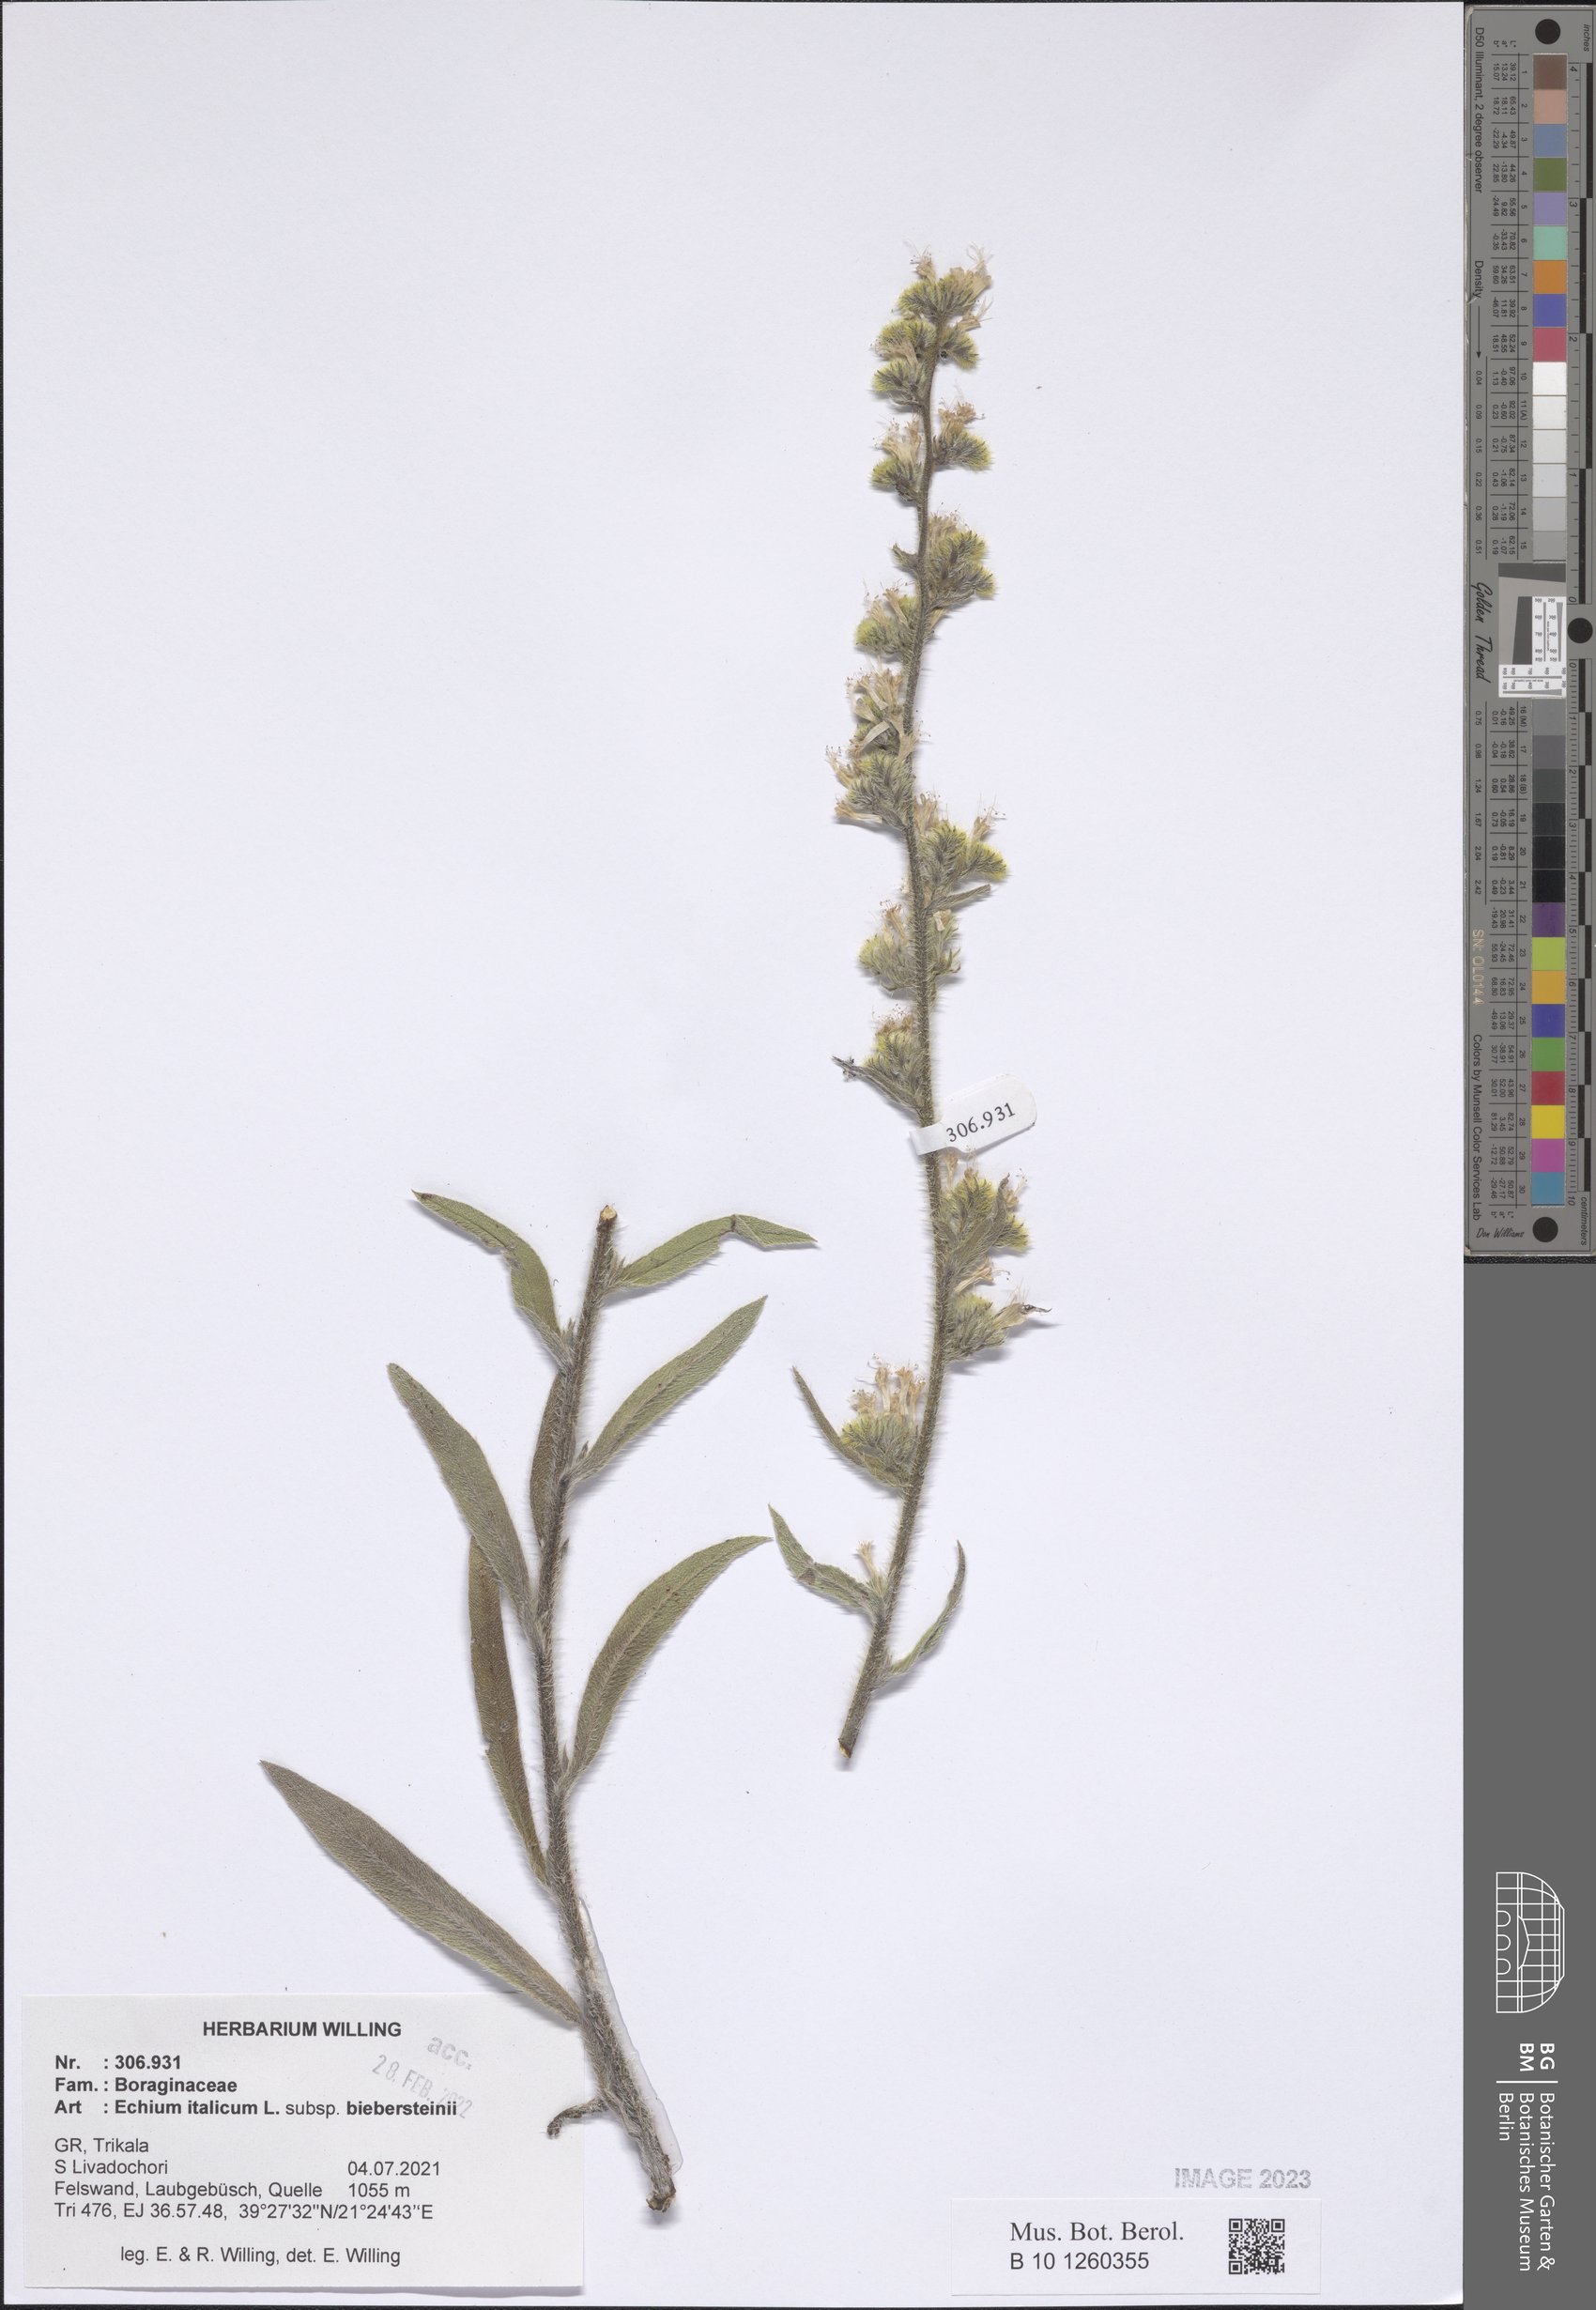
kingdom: Plantae
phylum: Tracheophyta
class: Magnoliopsida
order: Boraginales
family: Boraginaceae
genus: Echium
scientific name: Echium italicum
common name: Italian viper's bugloss
